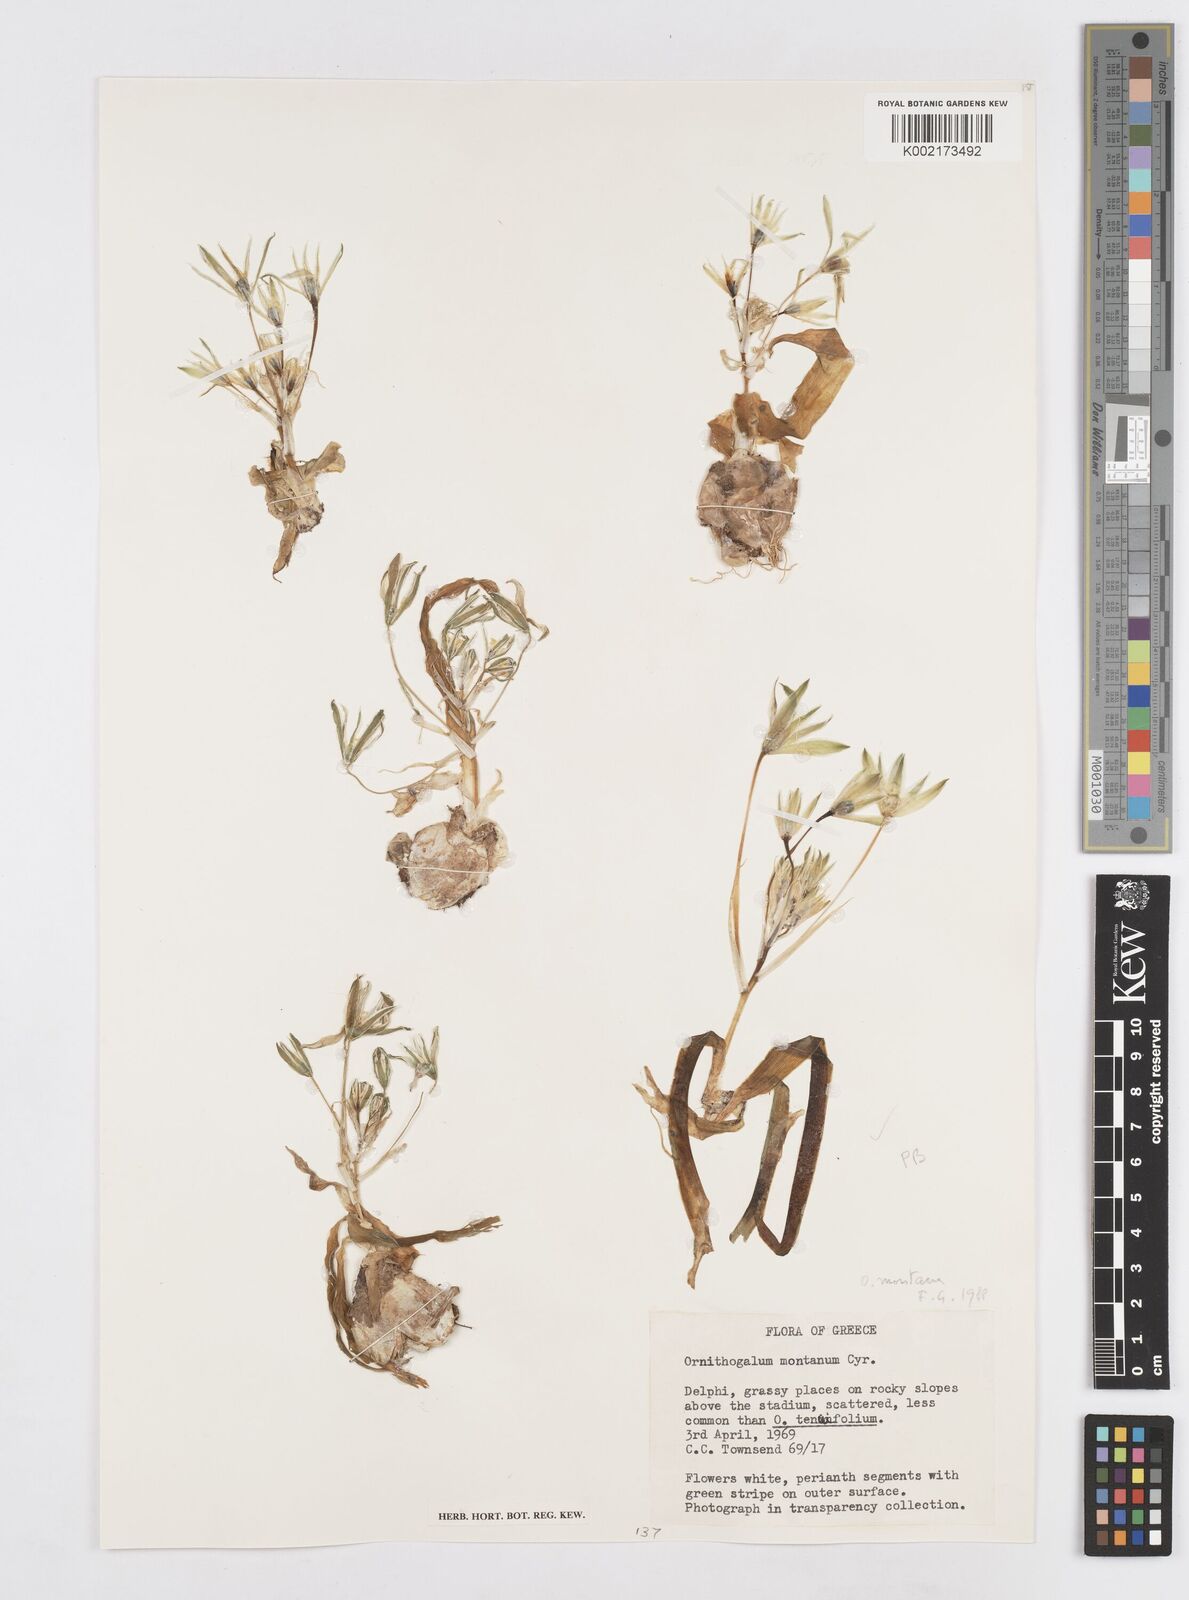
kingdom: Plantae
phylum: Tracheophyta
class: Liliopsida
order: Asparagales
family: Asparagaceae
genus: Ornithogalum
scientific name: Ornithogalum montanum
